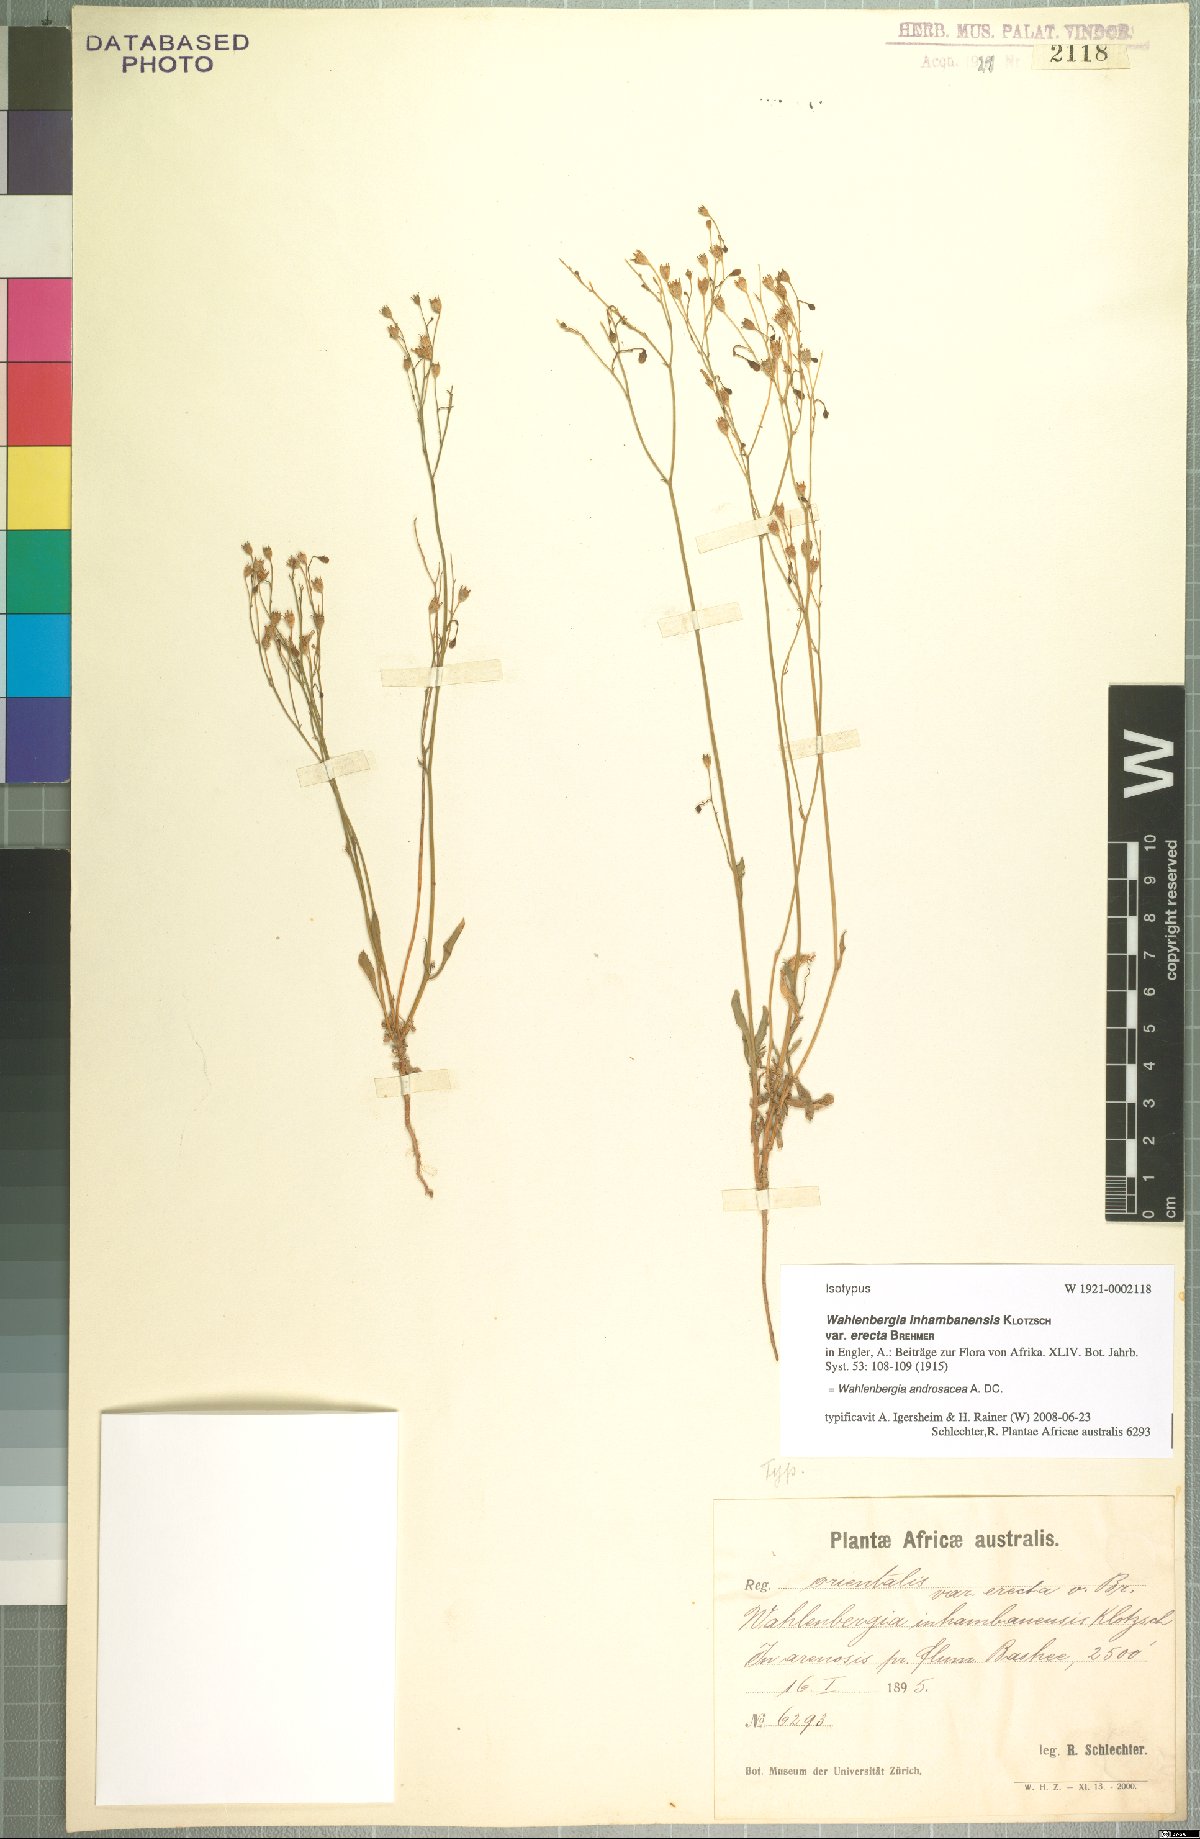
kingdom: Plantae
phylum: Tracheophyta
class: Magnoliopsida
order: Asterales
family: Campanulaceae
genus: Wahlenbergia
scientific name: Wahlenbergia androsacea
